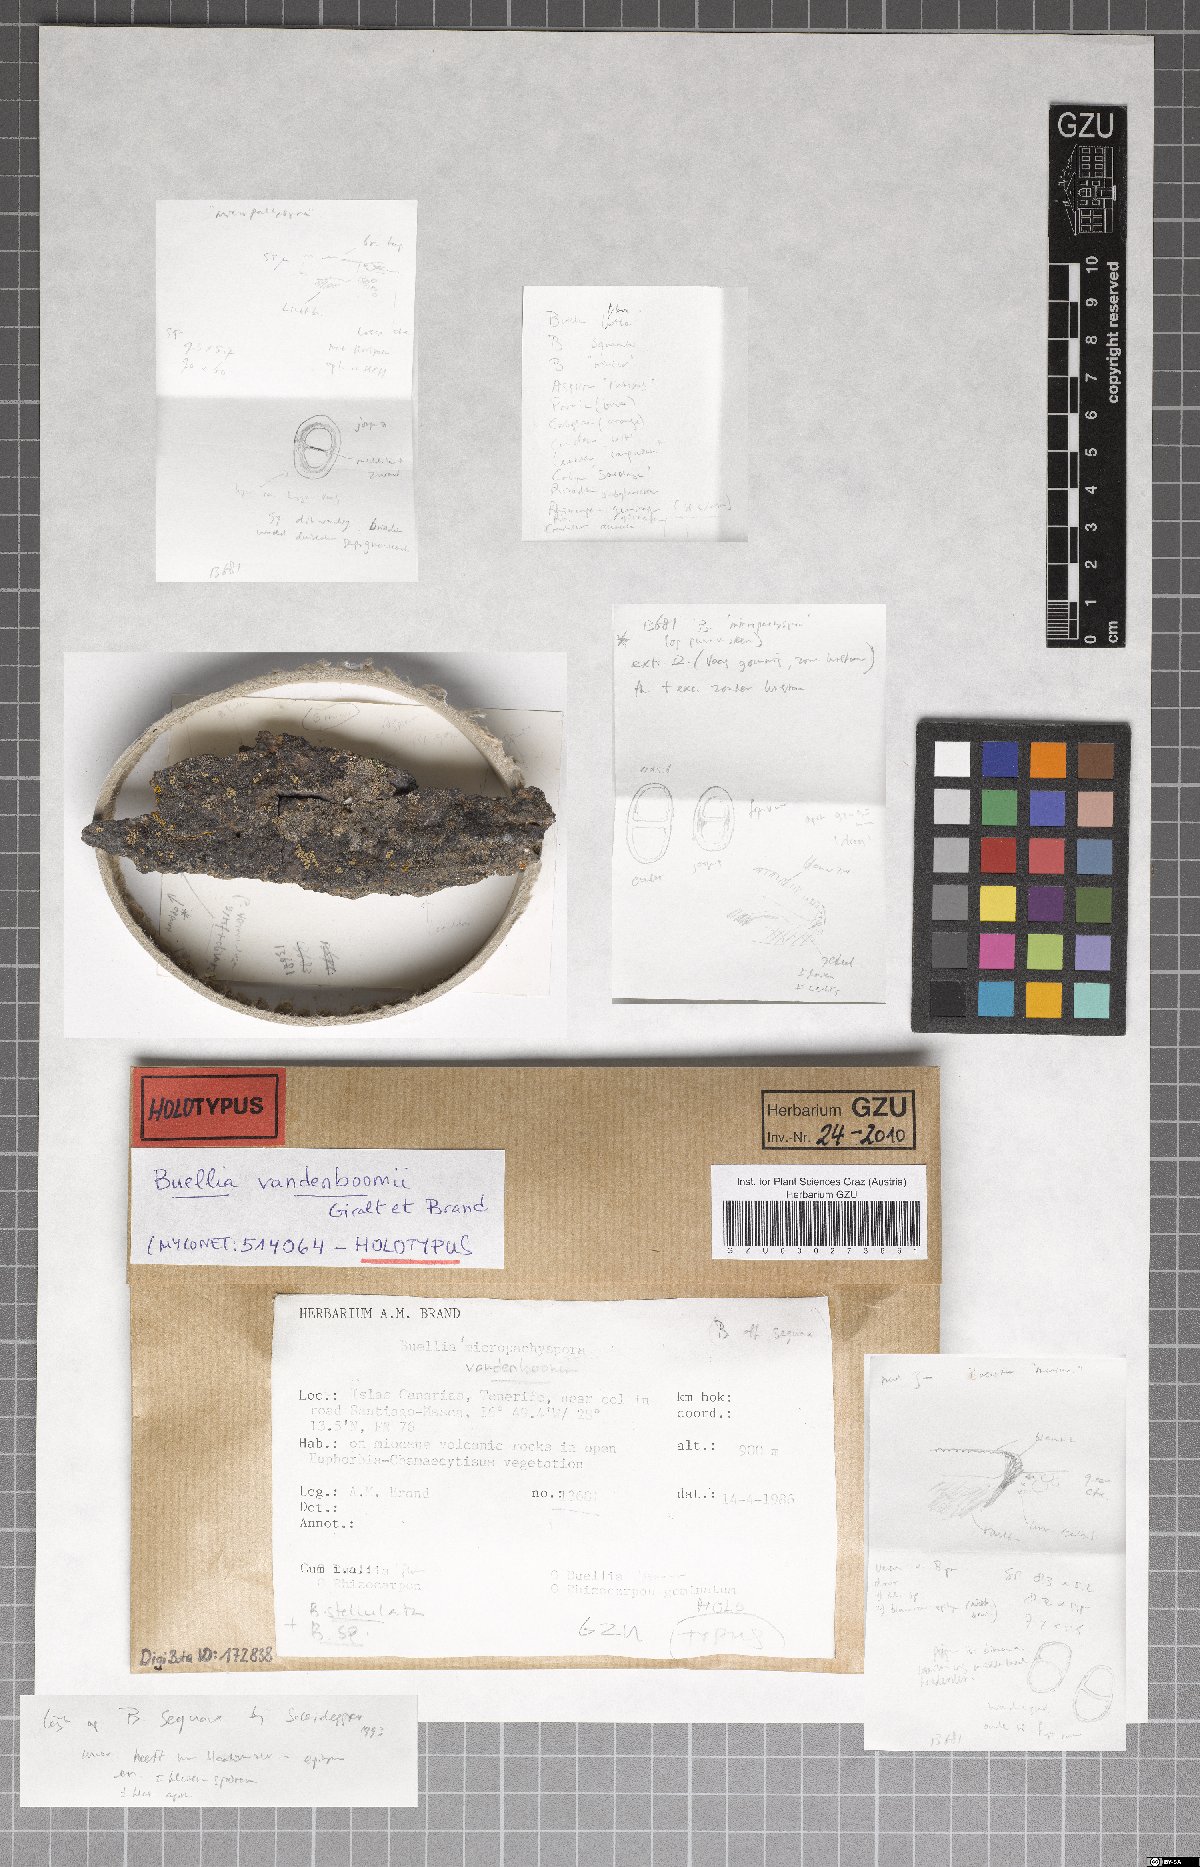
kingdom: Fungi
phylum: Ascomycota
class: Lecanoromycetes
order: Caliciales
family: Caliciaceae
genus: Buellia
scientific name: Buellia vandenboomii
